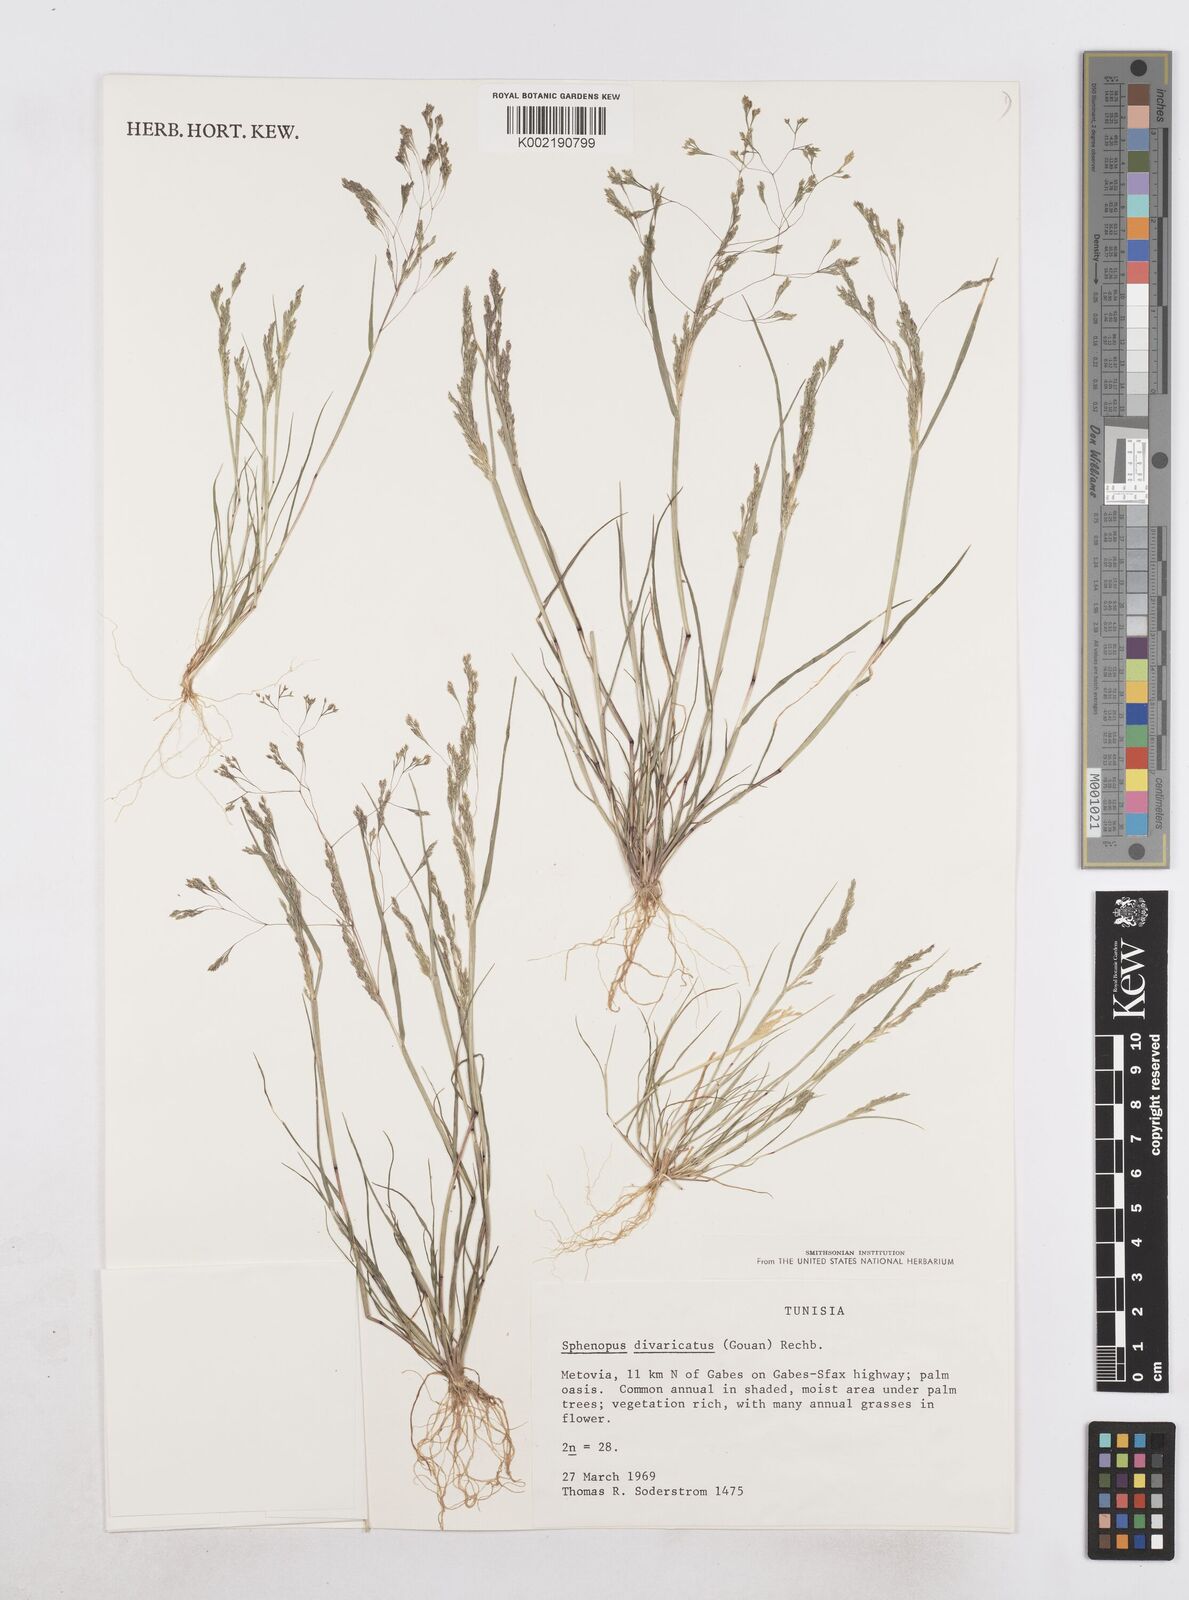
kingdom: Plantae
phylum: Tracheophyta
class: Liliopsida
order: Poales
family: Poaceae
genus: Sphenopus
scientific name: Sphenopus divaricatus
